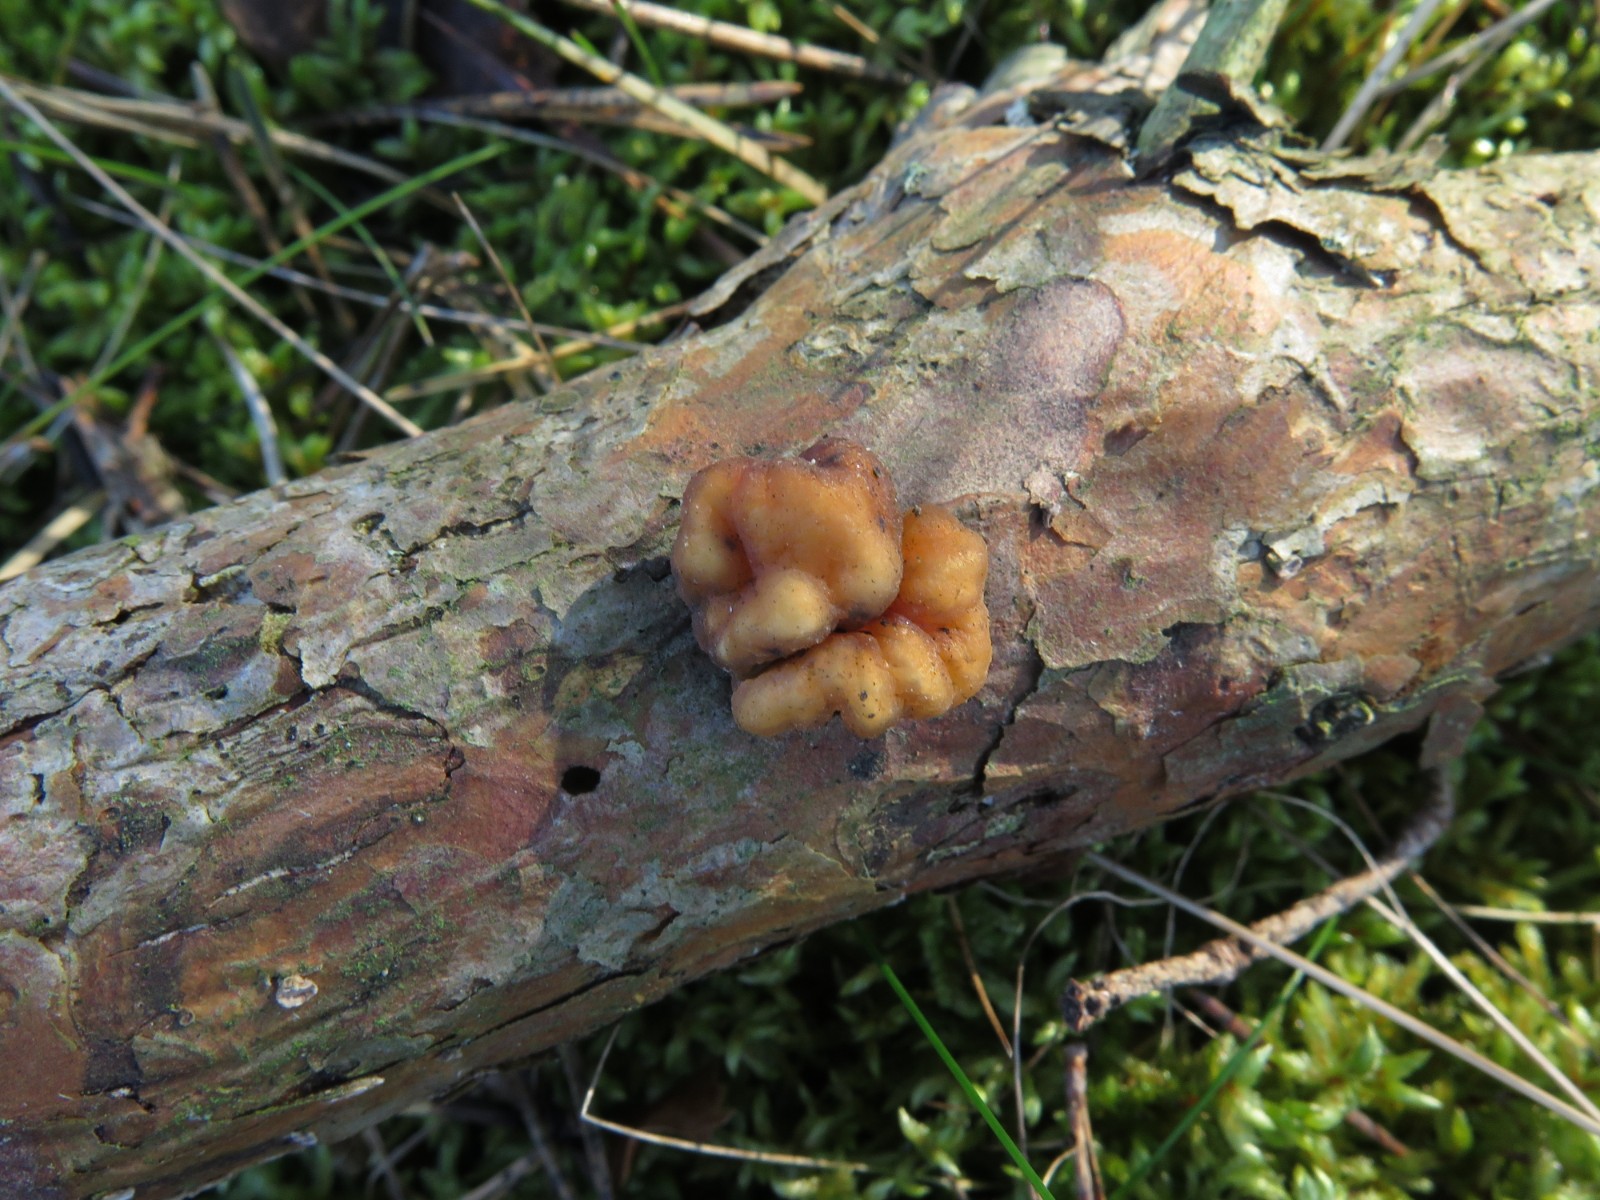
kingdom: Fungi
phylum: Basidiomycota
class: Tremellomycetes
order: Tremellales
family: Naemateliaceae
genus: Naematelia
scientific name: Naematelia encephala
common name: fyrre-bævresvamp
